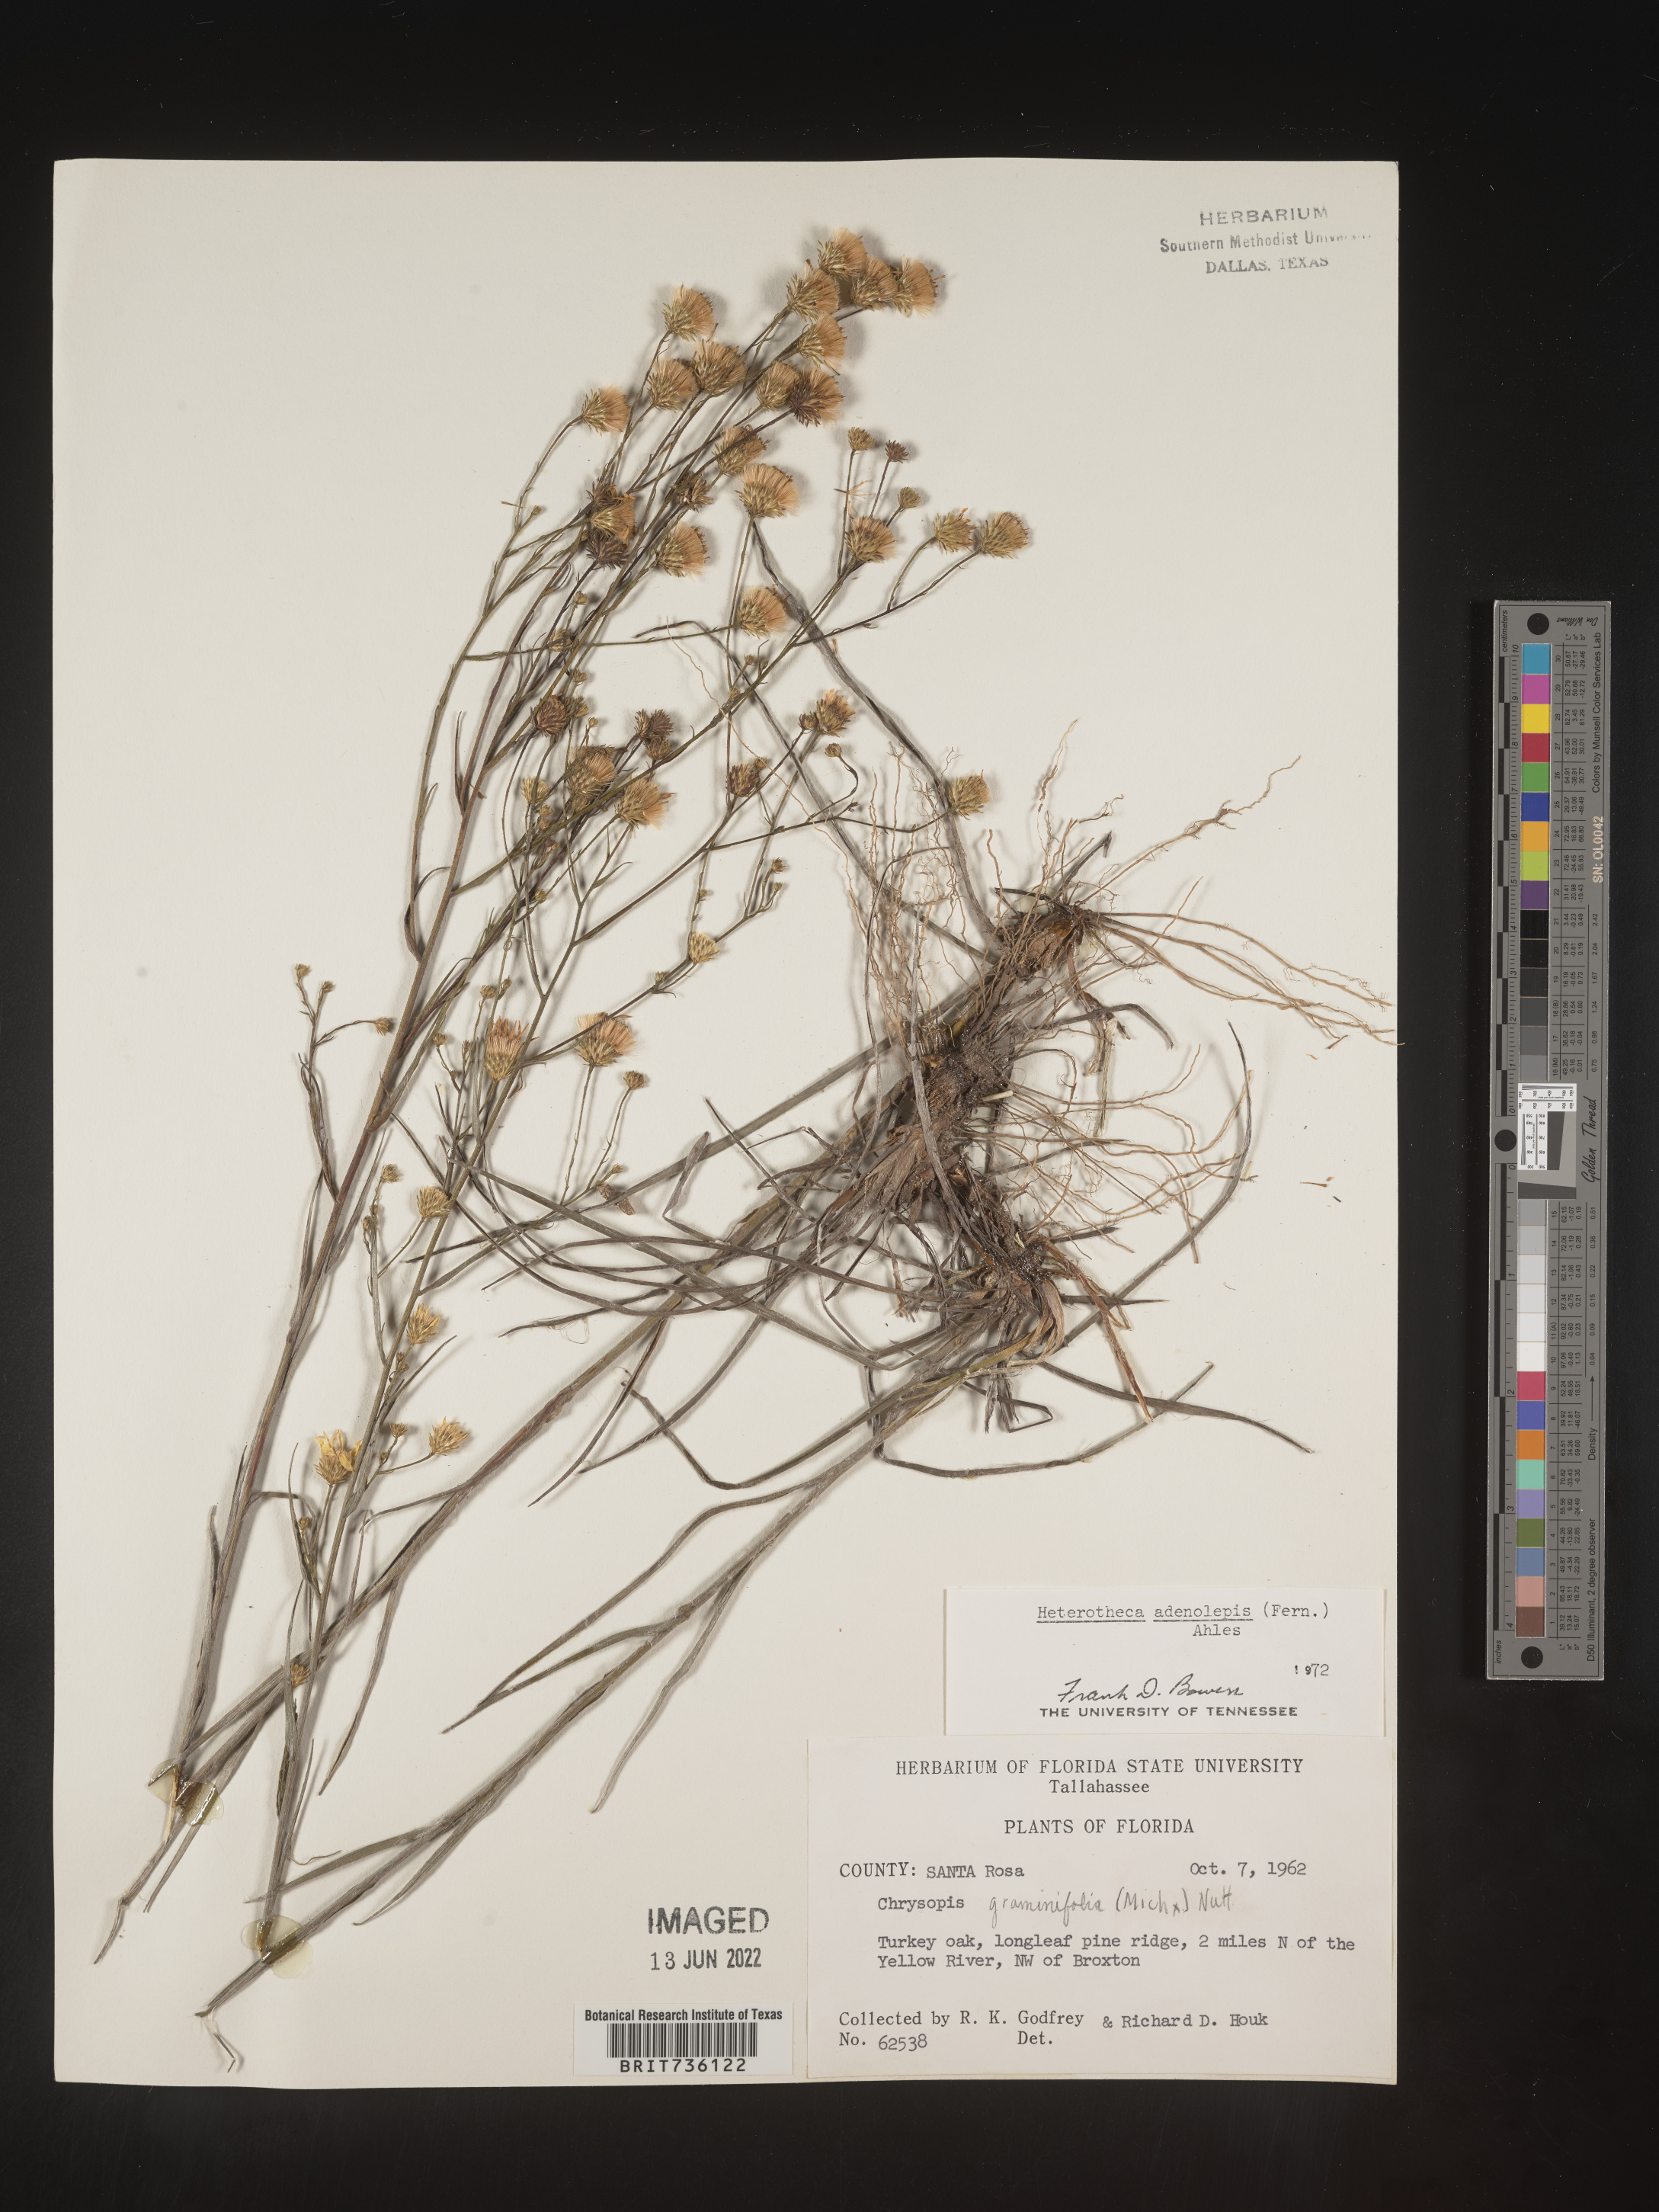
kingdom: Plantae
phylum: Tracheophyta
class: Magnoliopsida
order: Asterales
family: Asteraceae
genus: Pityopsis
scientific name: Pityopsis aspera
